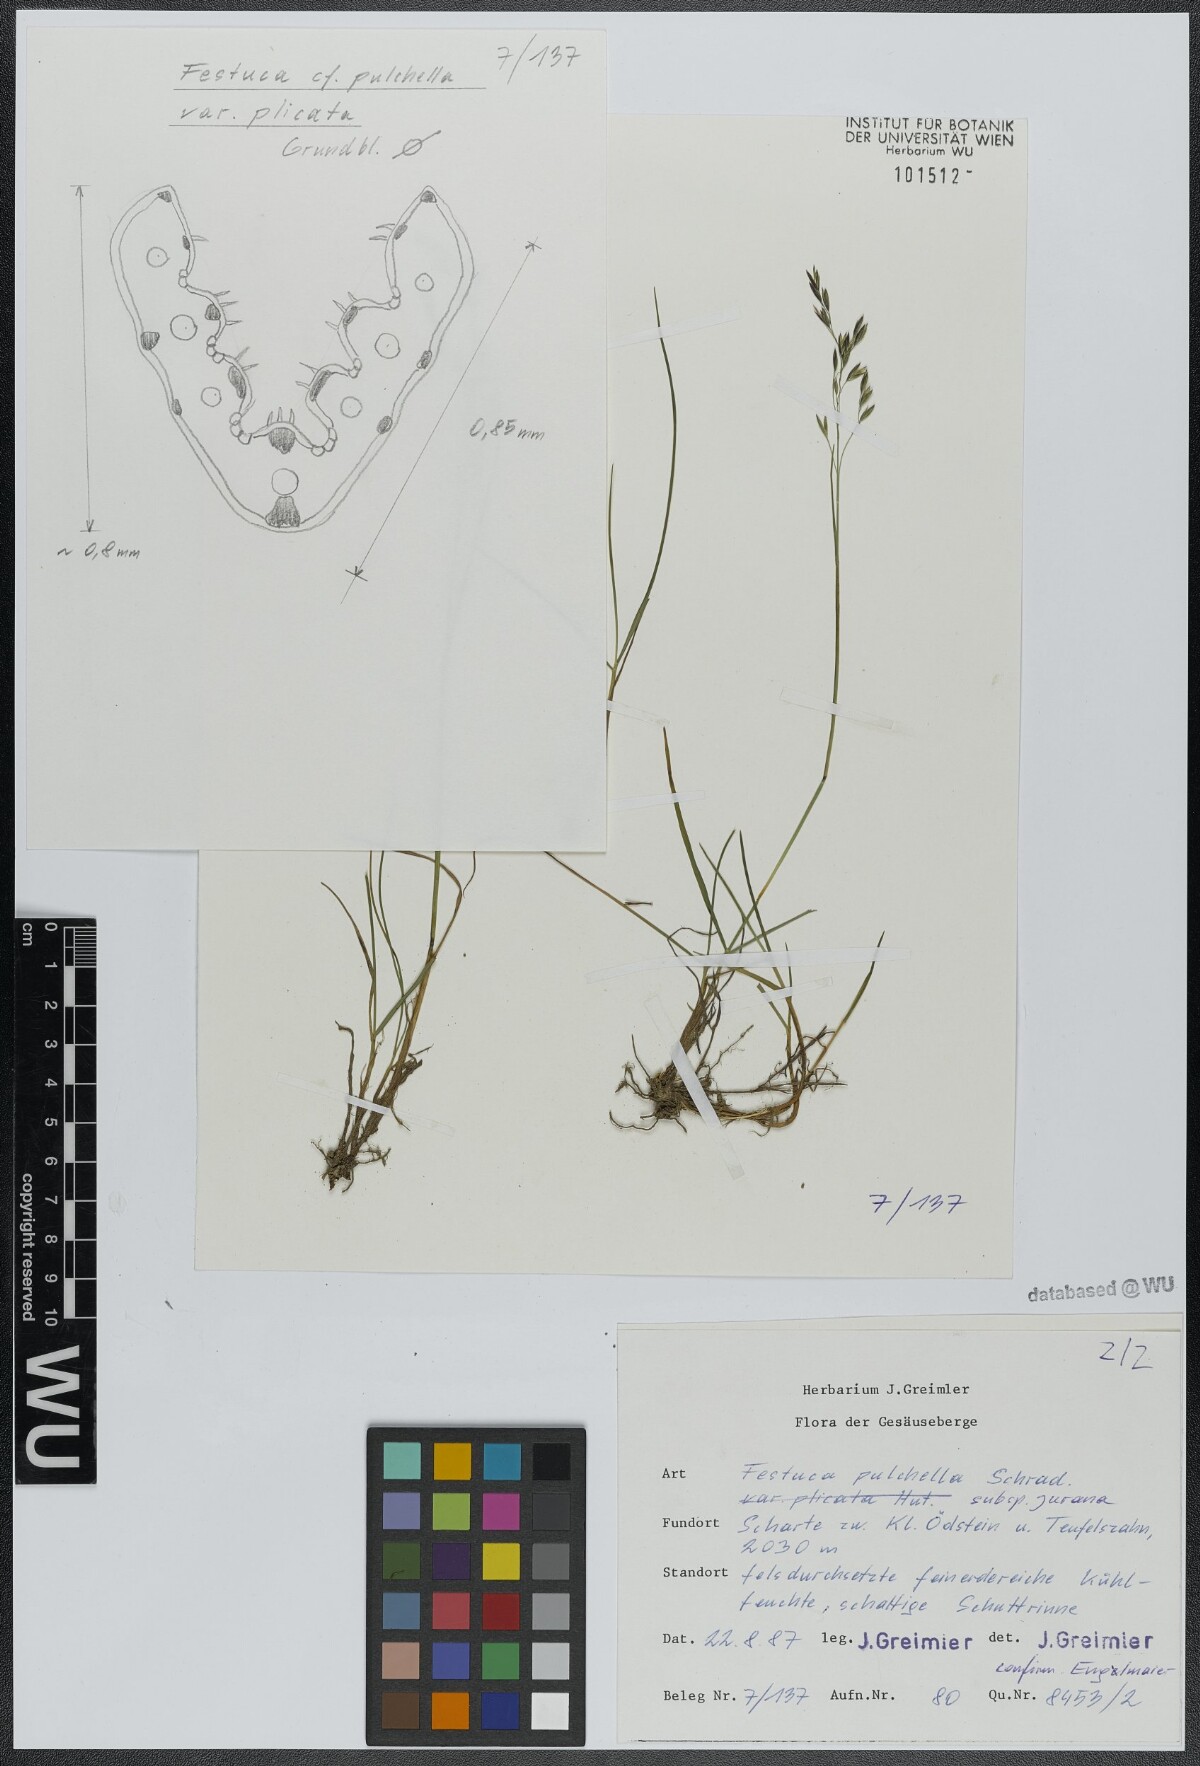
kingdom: Plantae
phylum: Tracheophyta
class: Liliopsida
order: Poales
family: Poaceae
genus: Festuca
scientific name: Festuca pulchella
